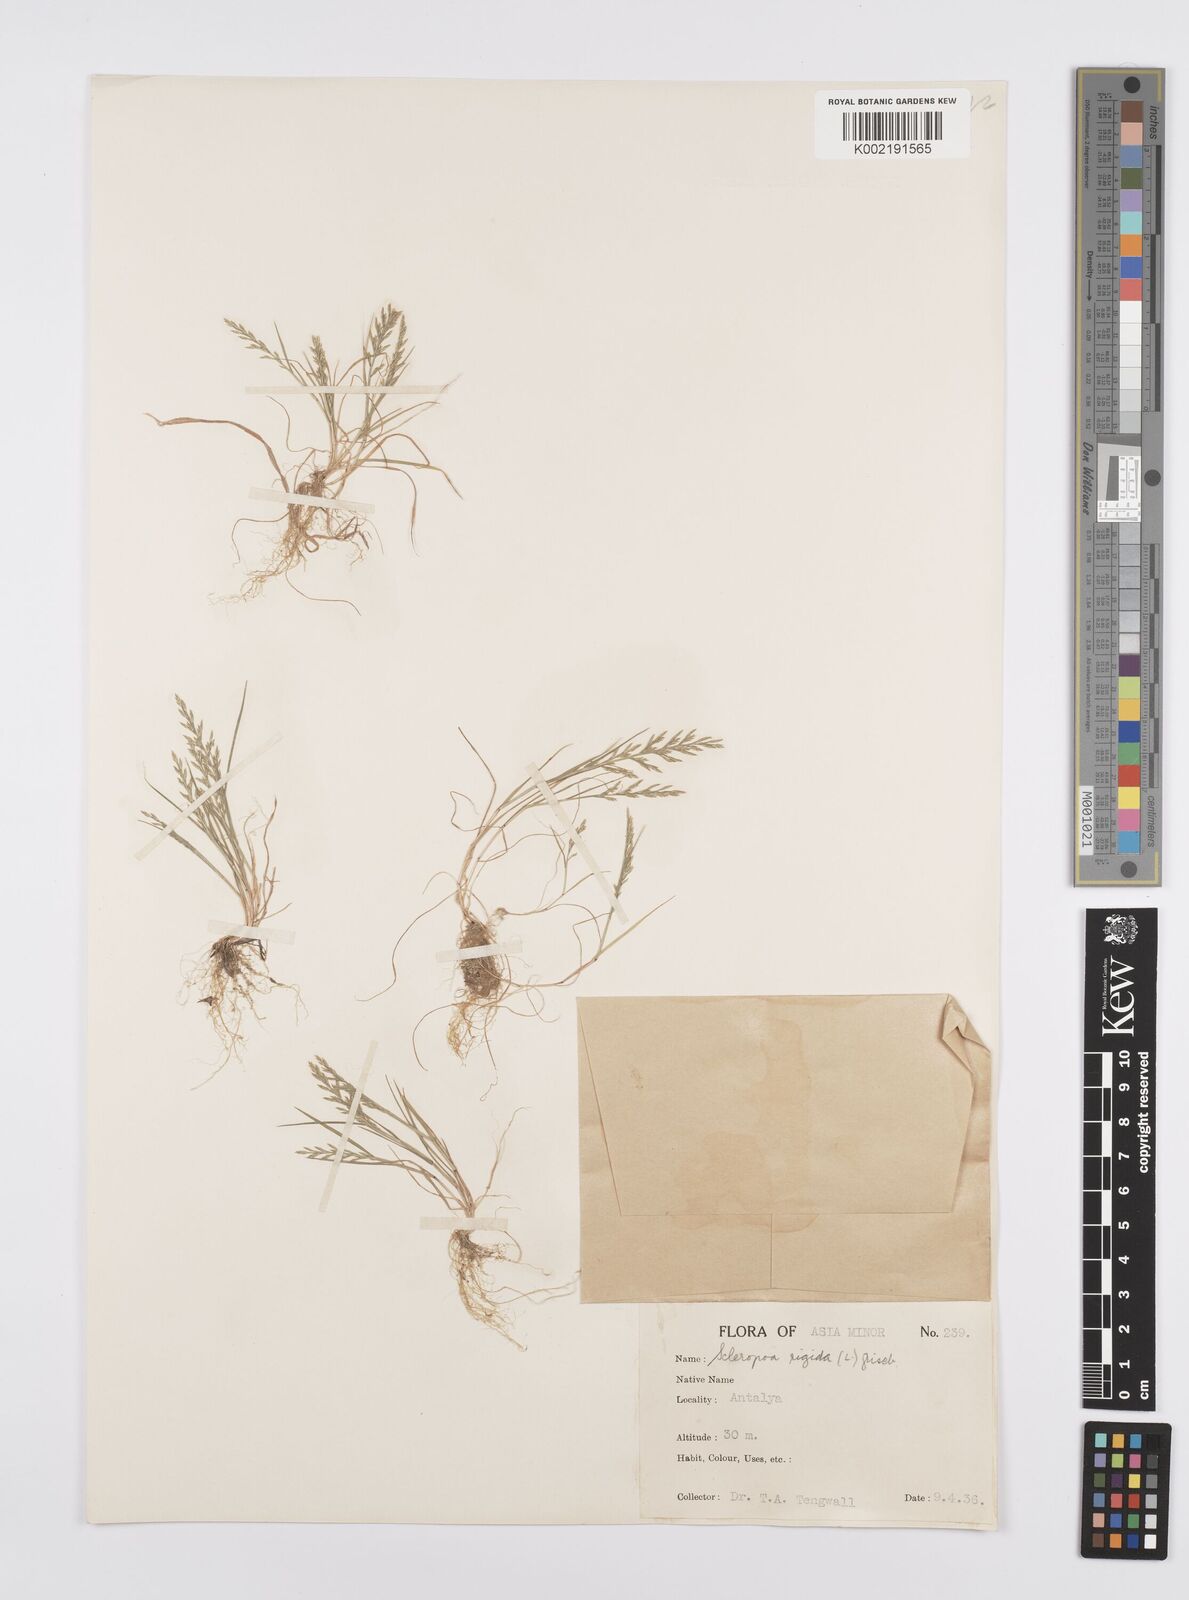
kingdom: Plantae
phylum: Tracheophyta
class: Liliopsida
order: Poales
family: Poaceae
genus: Catapodium
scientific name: Catapodium rigidum
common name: Fern-grass
